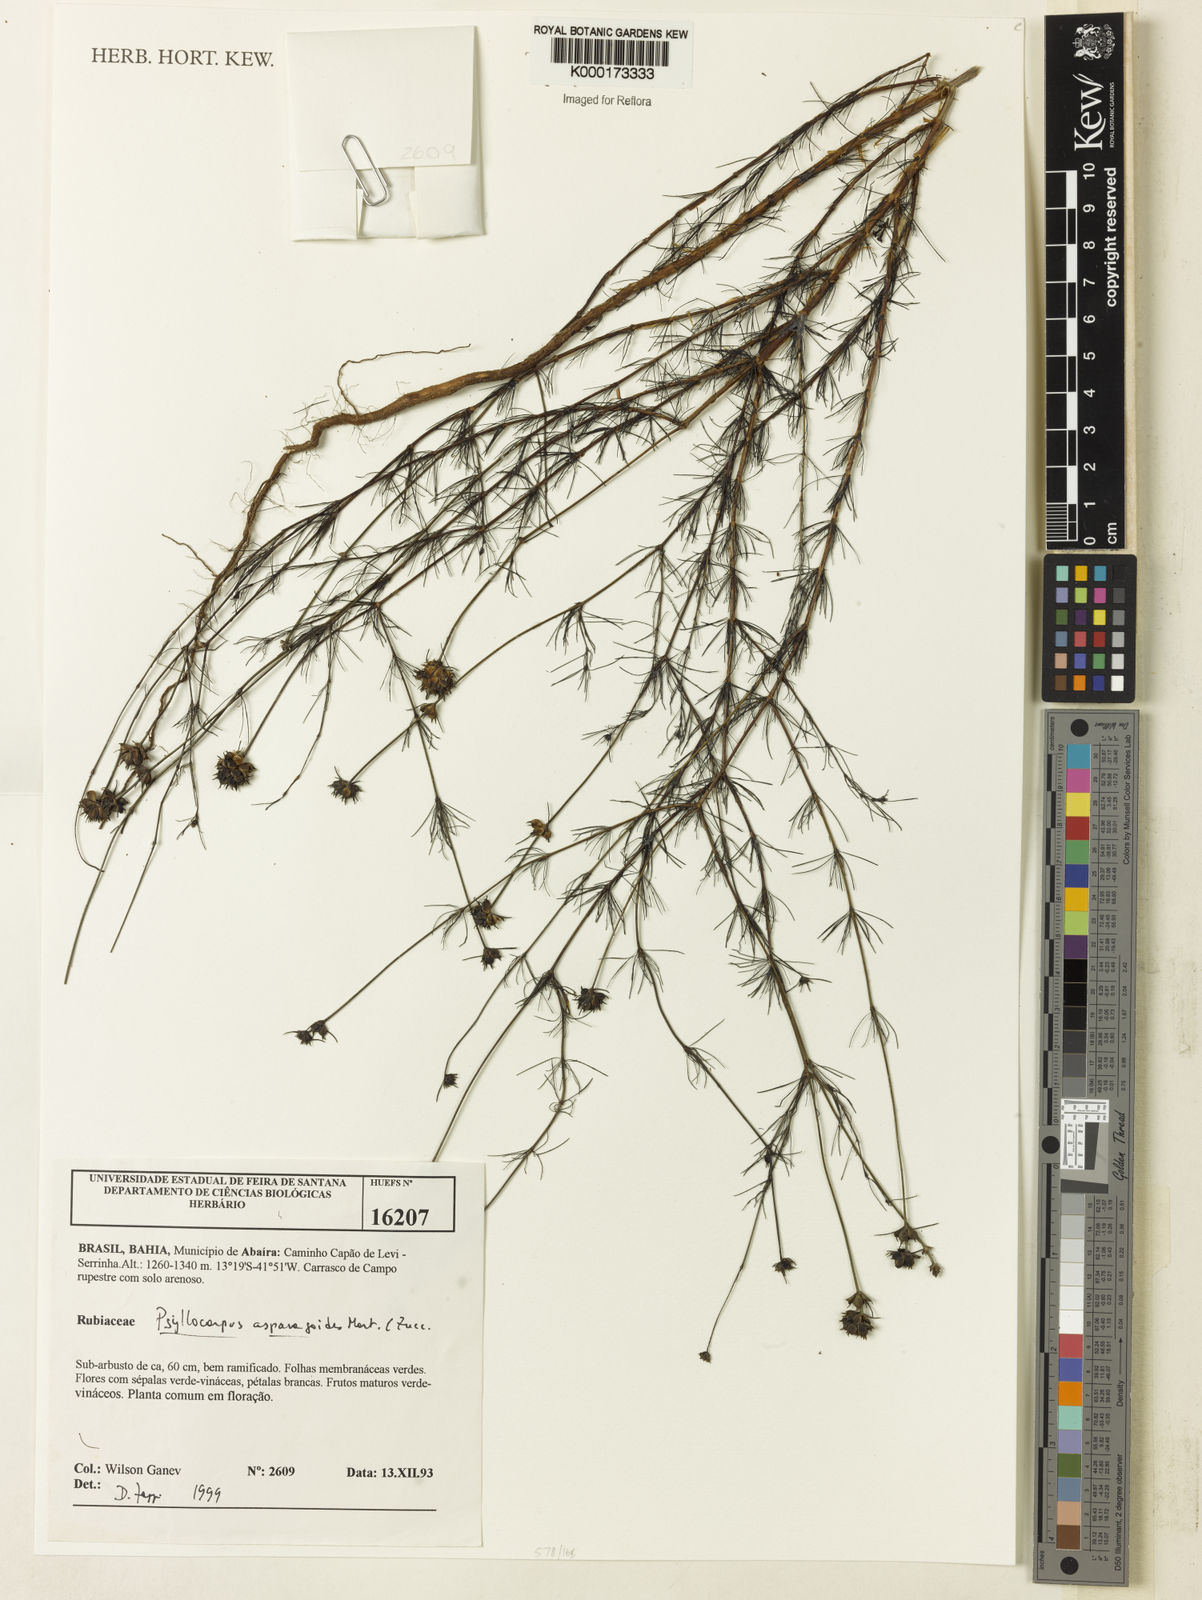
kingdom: Plantae
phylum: Tracheophyta
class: Magnoliopsida
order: Gentianales
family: Rubiaceae
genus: Psyllocarpus
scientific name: Psyllocarpus asparagoides
